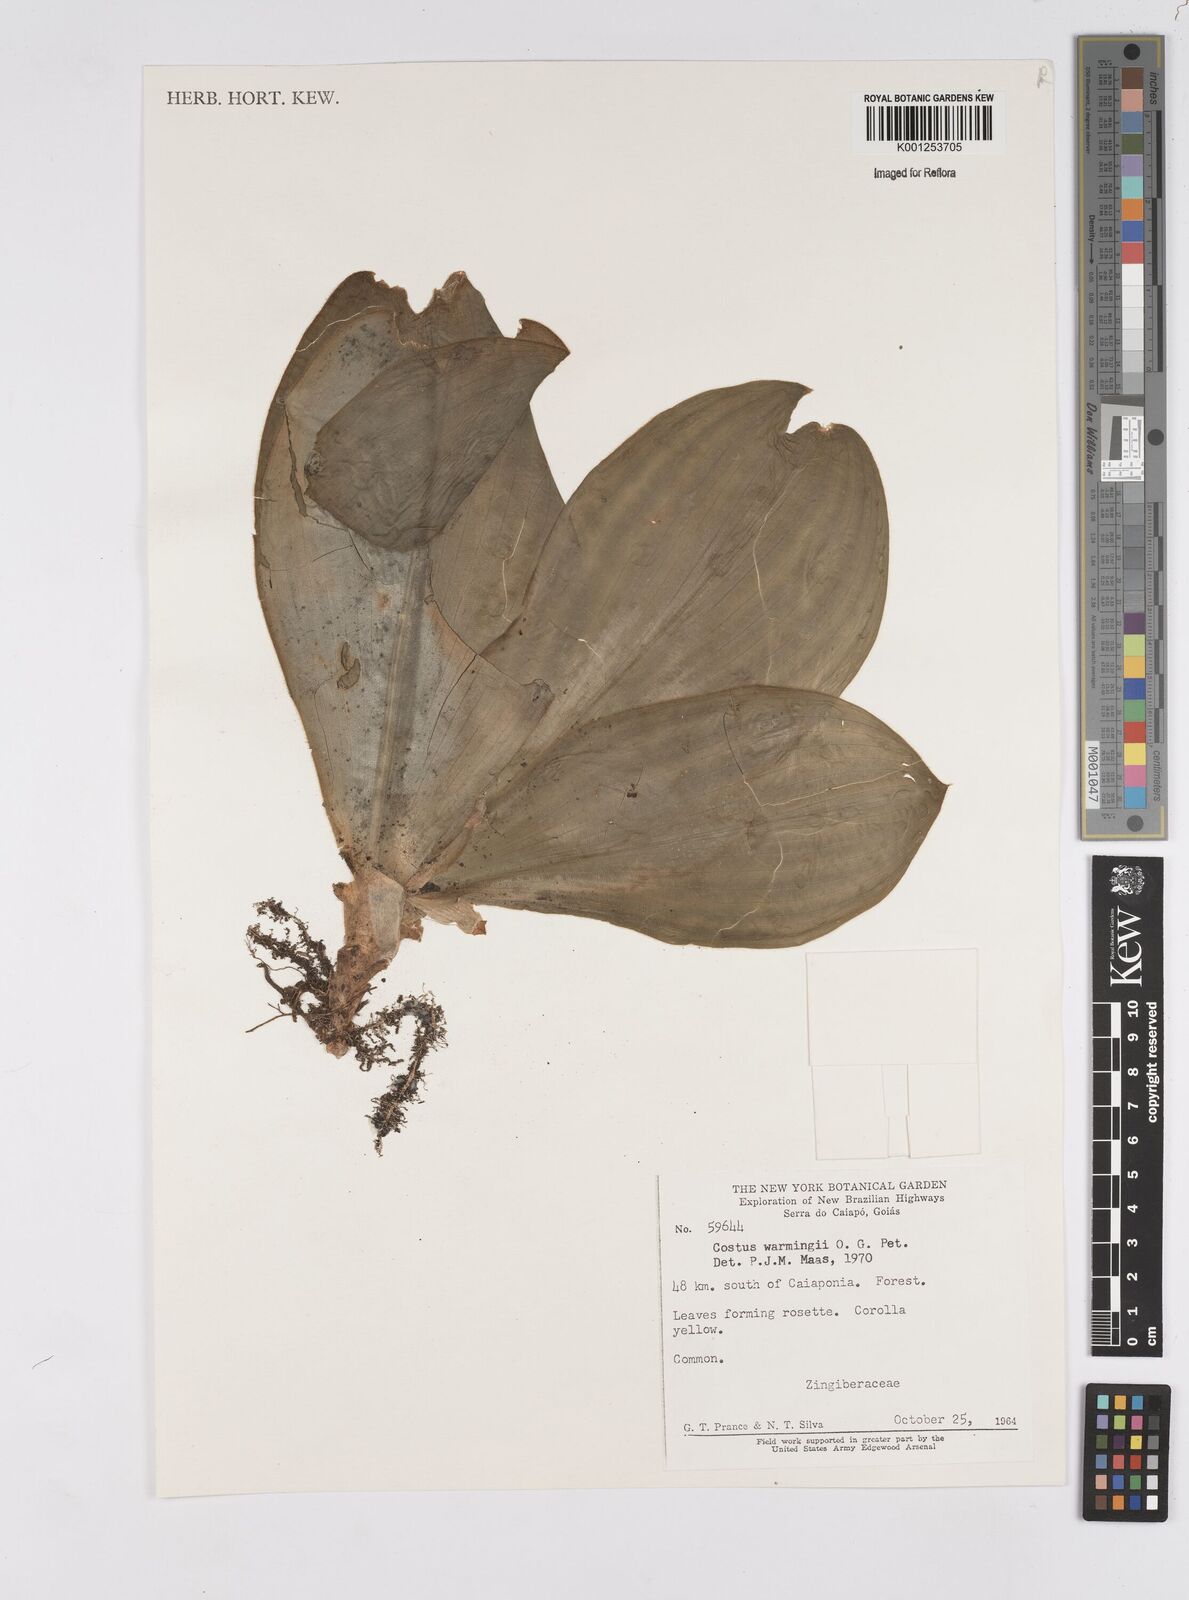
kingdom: Plantae
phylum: Tracheophyta
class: Liliopsida
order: Zingiberales
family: Costaceae
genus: Chamaecostus
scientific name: Chamaecostus subsessilis
